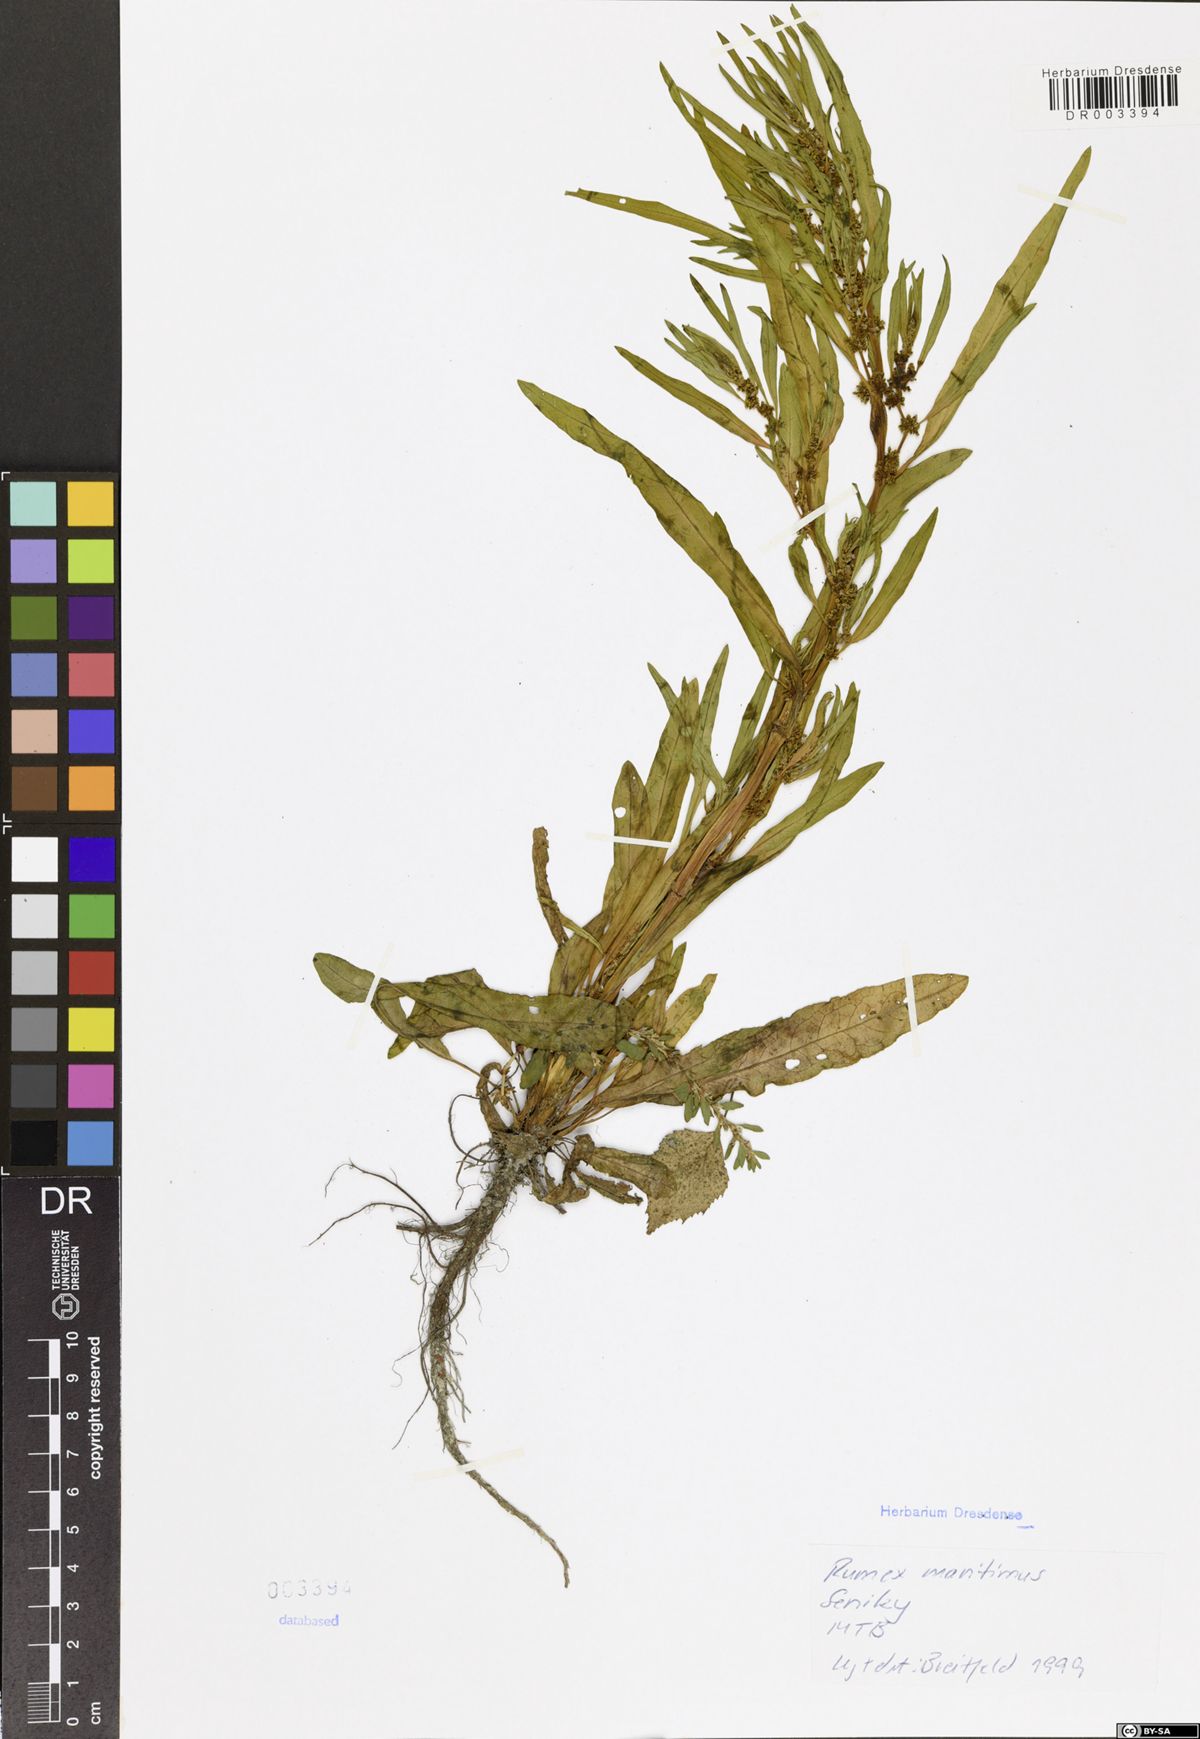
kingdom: Plantae
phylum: Tracheophyta
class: Magnoliopsida
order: Caryophyllales
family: Polygonaceae
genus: Rumex
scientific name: Rumex maritimus
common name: Golden dock
